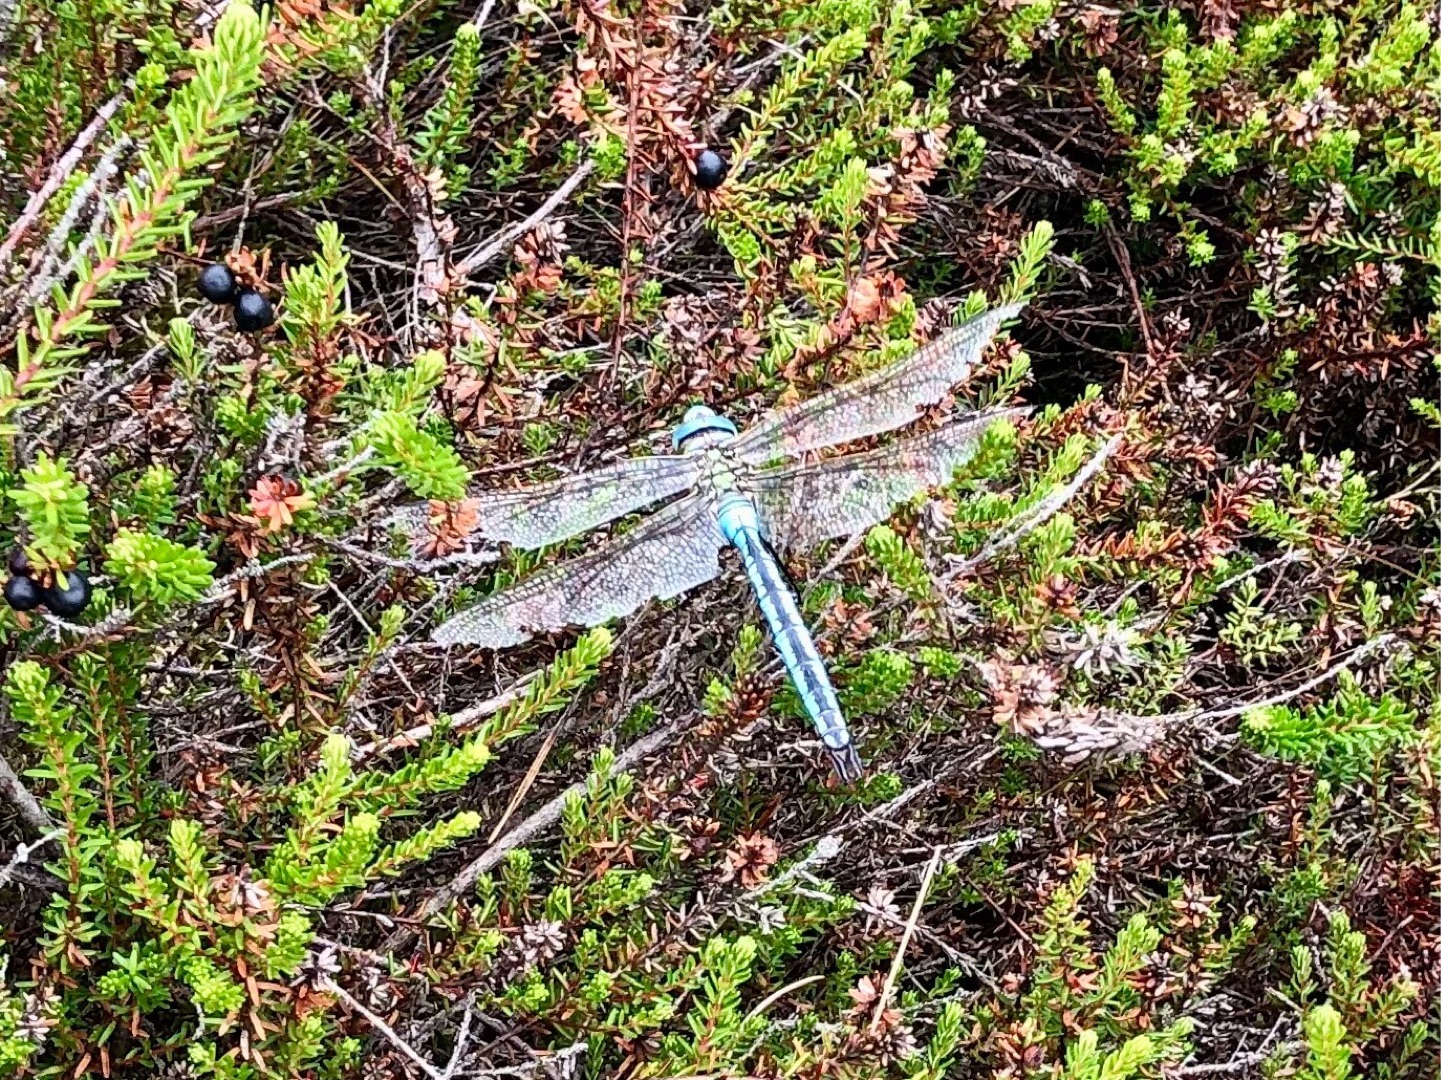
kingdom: Animalia
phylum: Arthropoda
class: Insecta
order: Odonata
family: Aeshnidae
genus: Anax
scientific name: Anax imperator
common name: Stor kejserguldsmed
